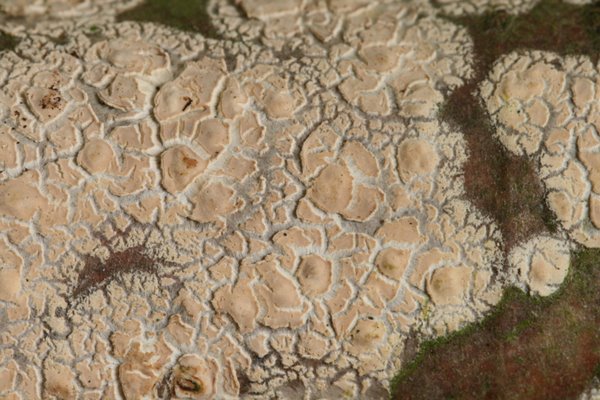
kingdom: Fungi
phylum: Basidiomycota
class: Agaricomycetes
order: Agaricales
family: Physalacriaceae
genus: Cylindrobasidium
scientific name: Cylindrobasidium evolvens
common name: sprækkehinde
